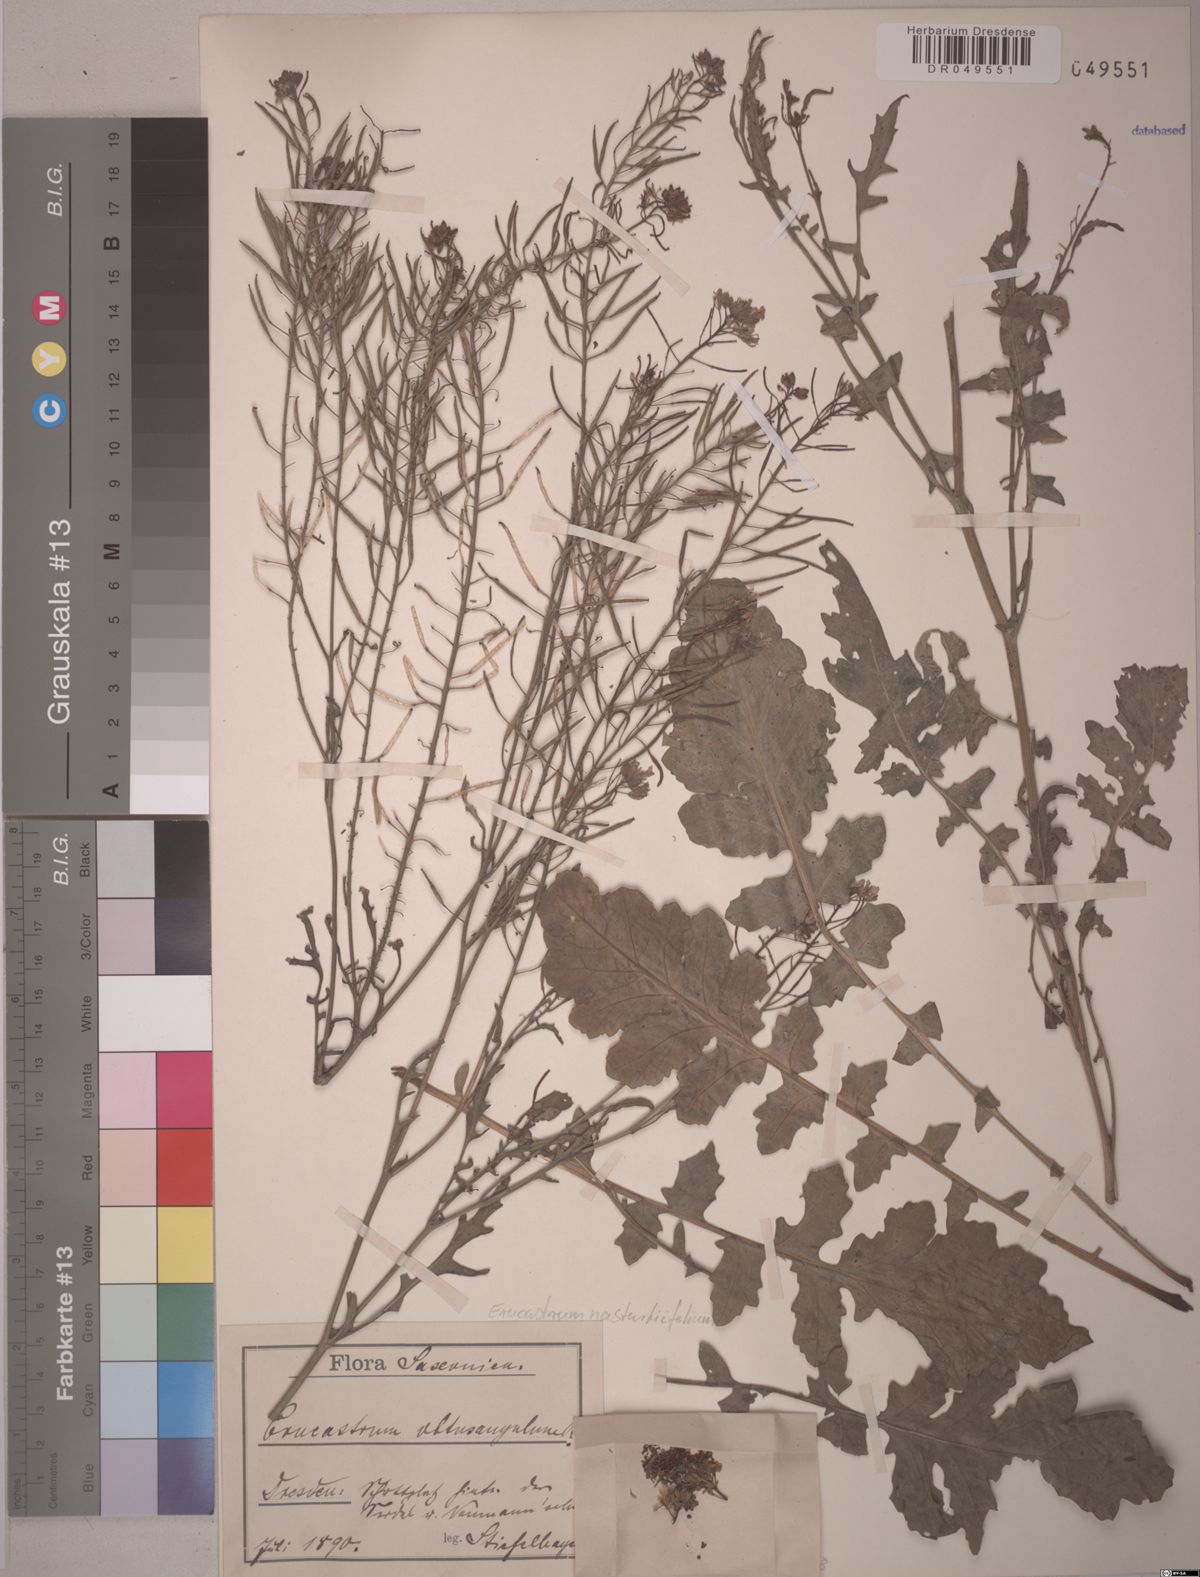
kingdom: Plantae
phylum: Tracheophyta
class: Magnoliopsida
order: Brassicales
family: Brassicaceae
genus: Erucastrum
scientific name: Erucastrum nasturtiifolium
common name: Watercress-leaf rocket
